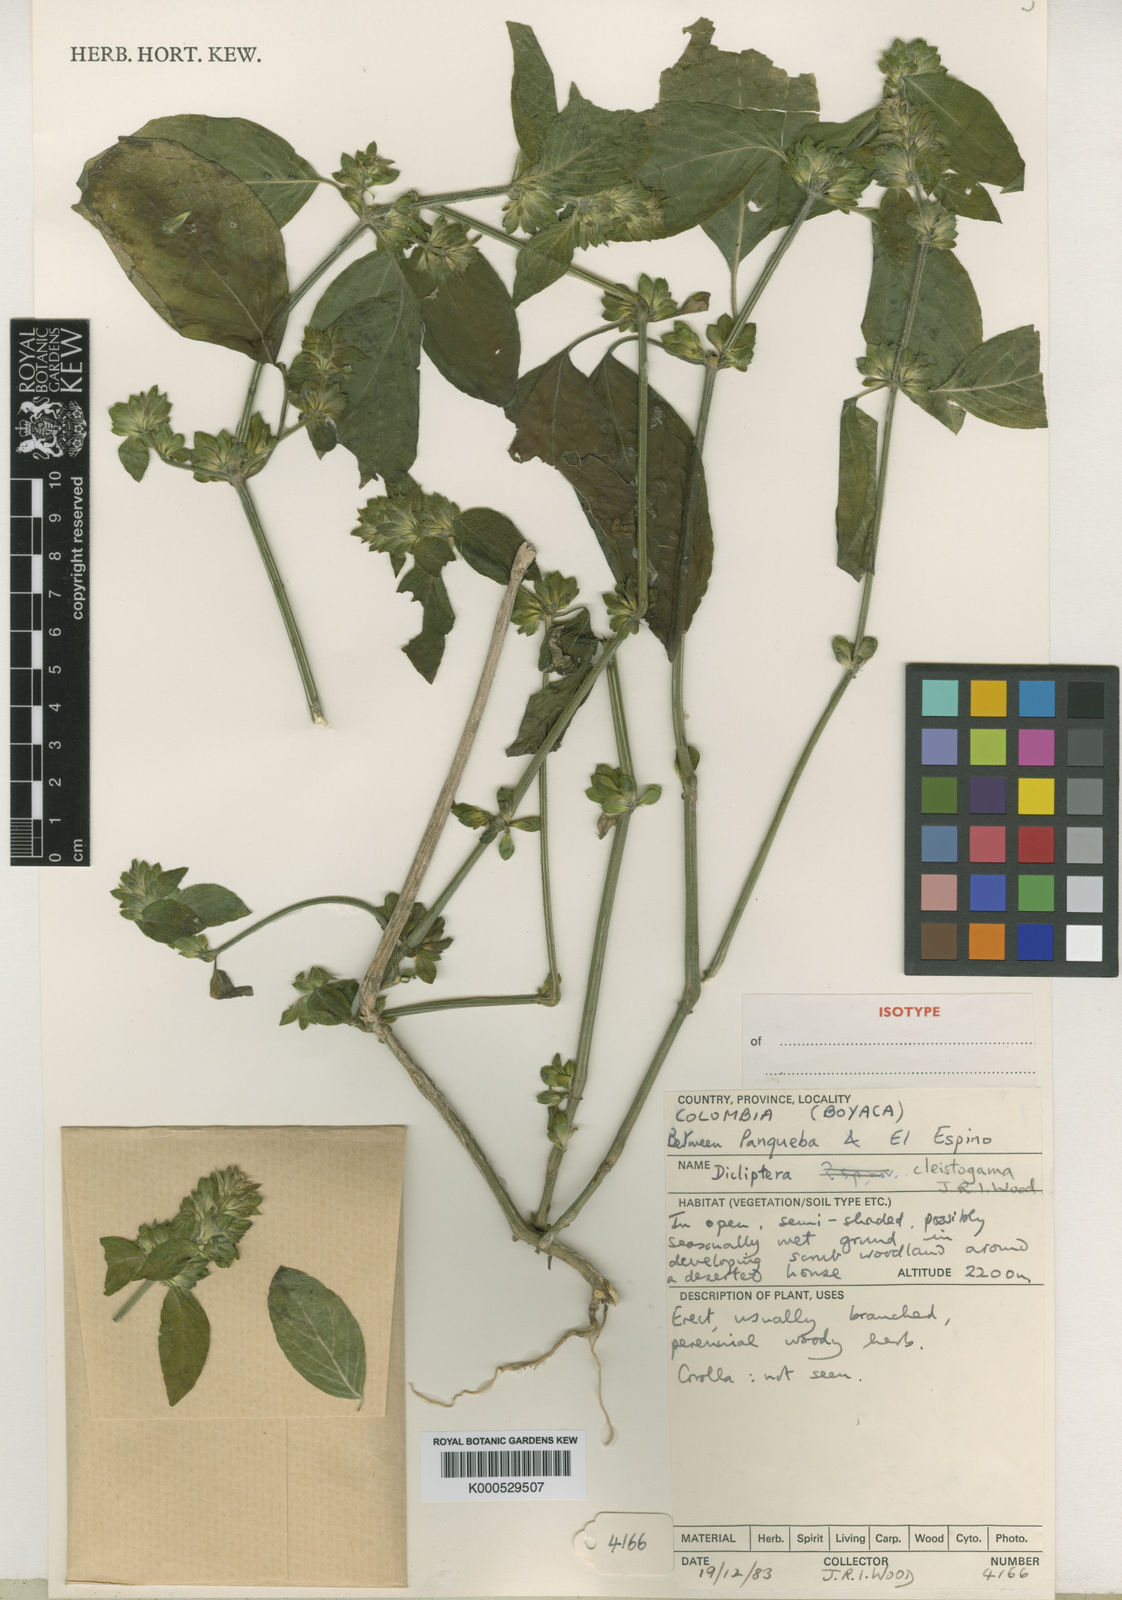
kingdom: Plantae
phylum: Tracheophyta
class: Magnoliopsida
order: Lamiales
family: Acanthaceae
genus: Dicliptera
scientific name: Dicliptera cleistogama
